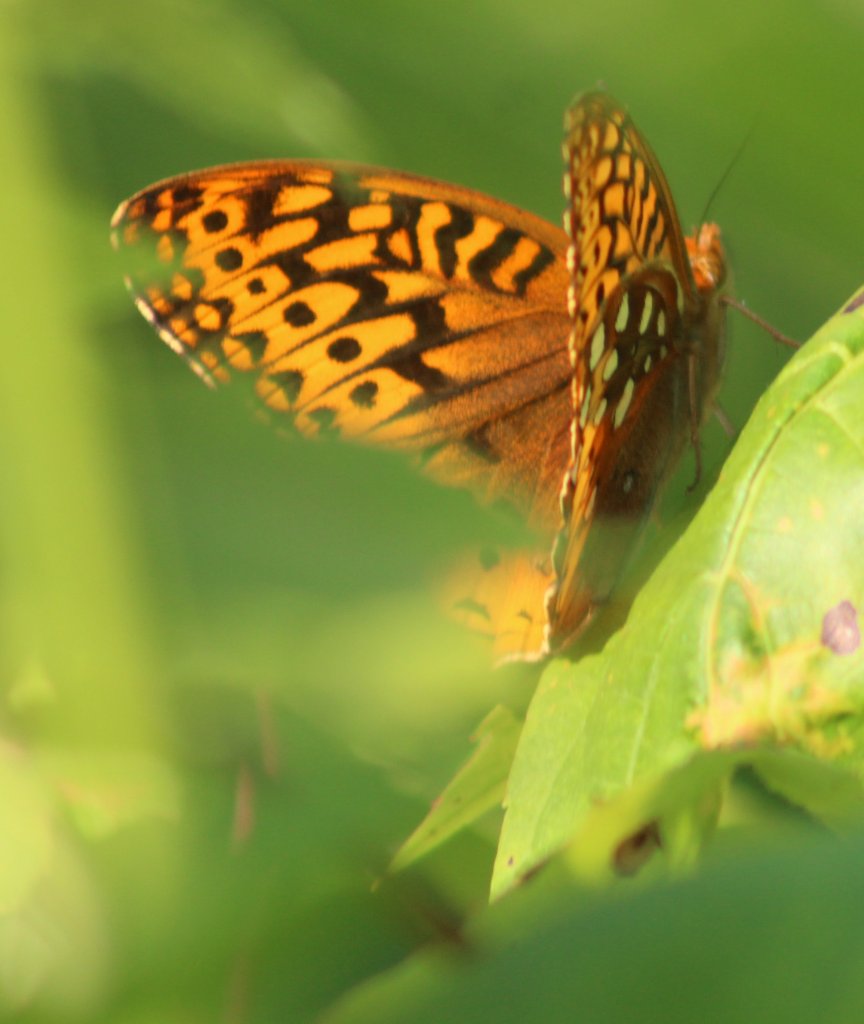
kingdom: Animalia
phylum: Arthropoda
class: Insecta
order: Lepidoptera
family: Nymphalidae
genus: Speyeria
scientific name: Speyeria cybele
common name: Great Spangled Fritillary
